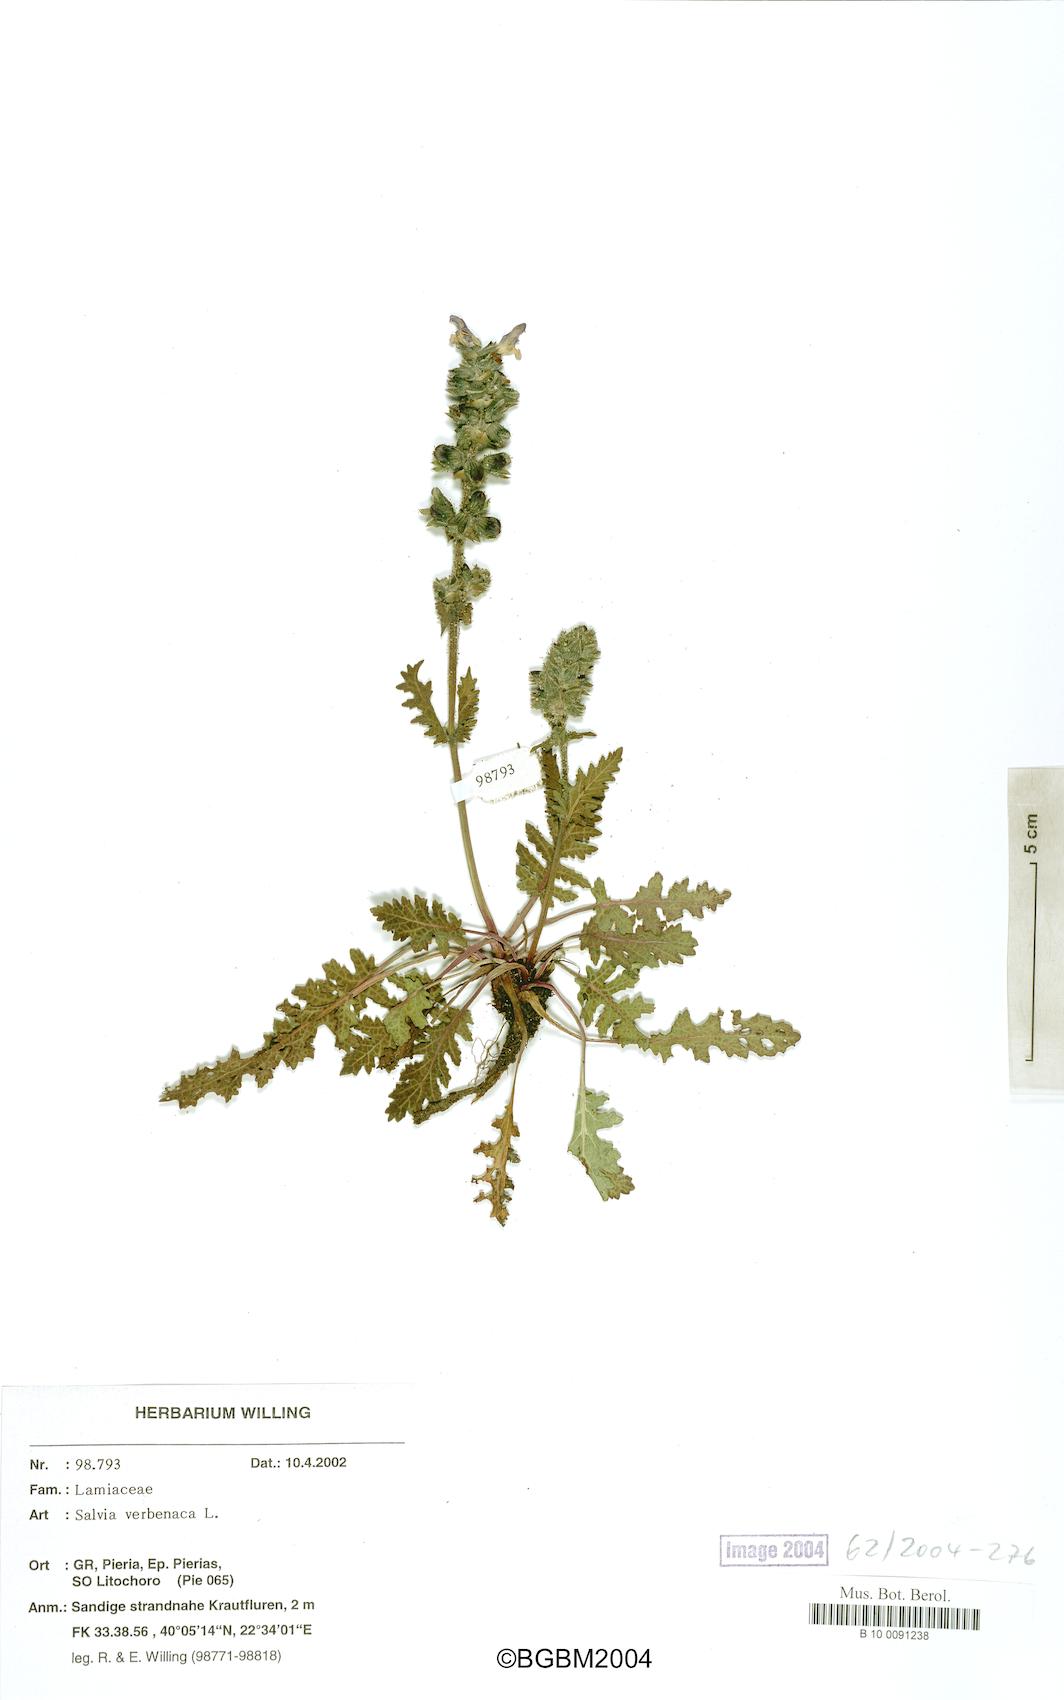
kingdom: Plantae
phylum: Tracheophyta
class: Magnoliopsida
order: Lamiales
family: Lamiaceae
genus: Salvia
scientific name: Salvia verbenaca
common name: Wild clary
